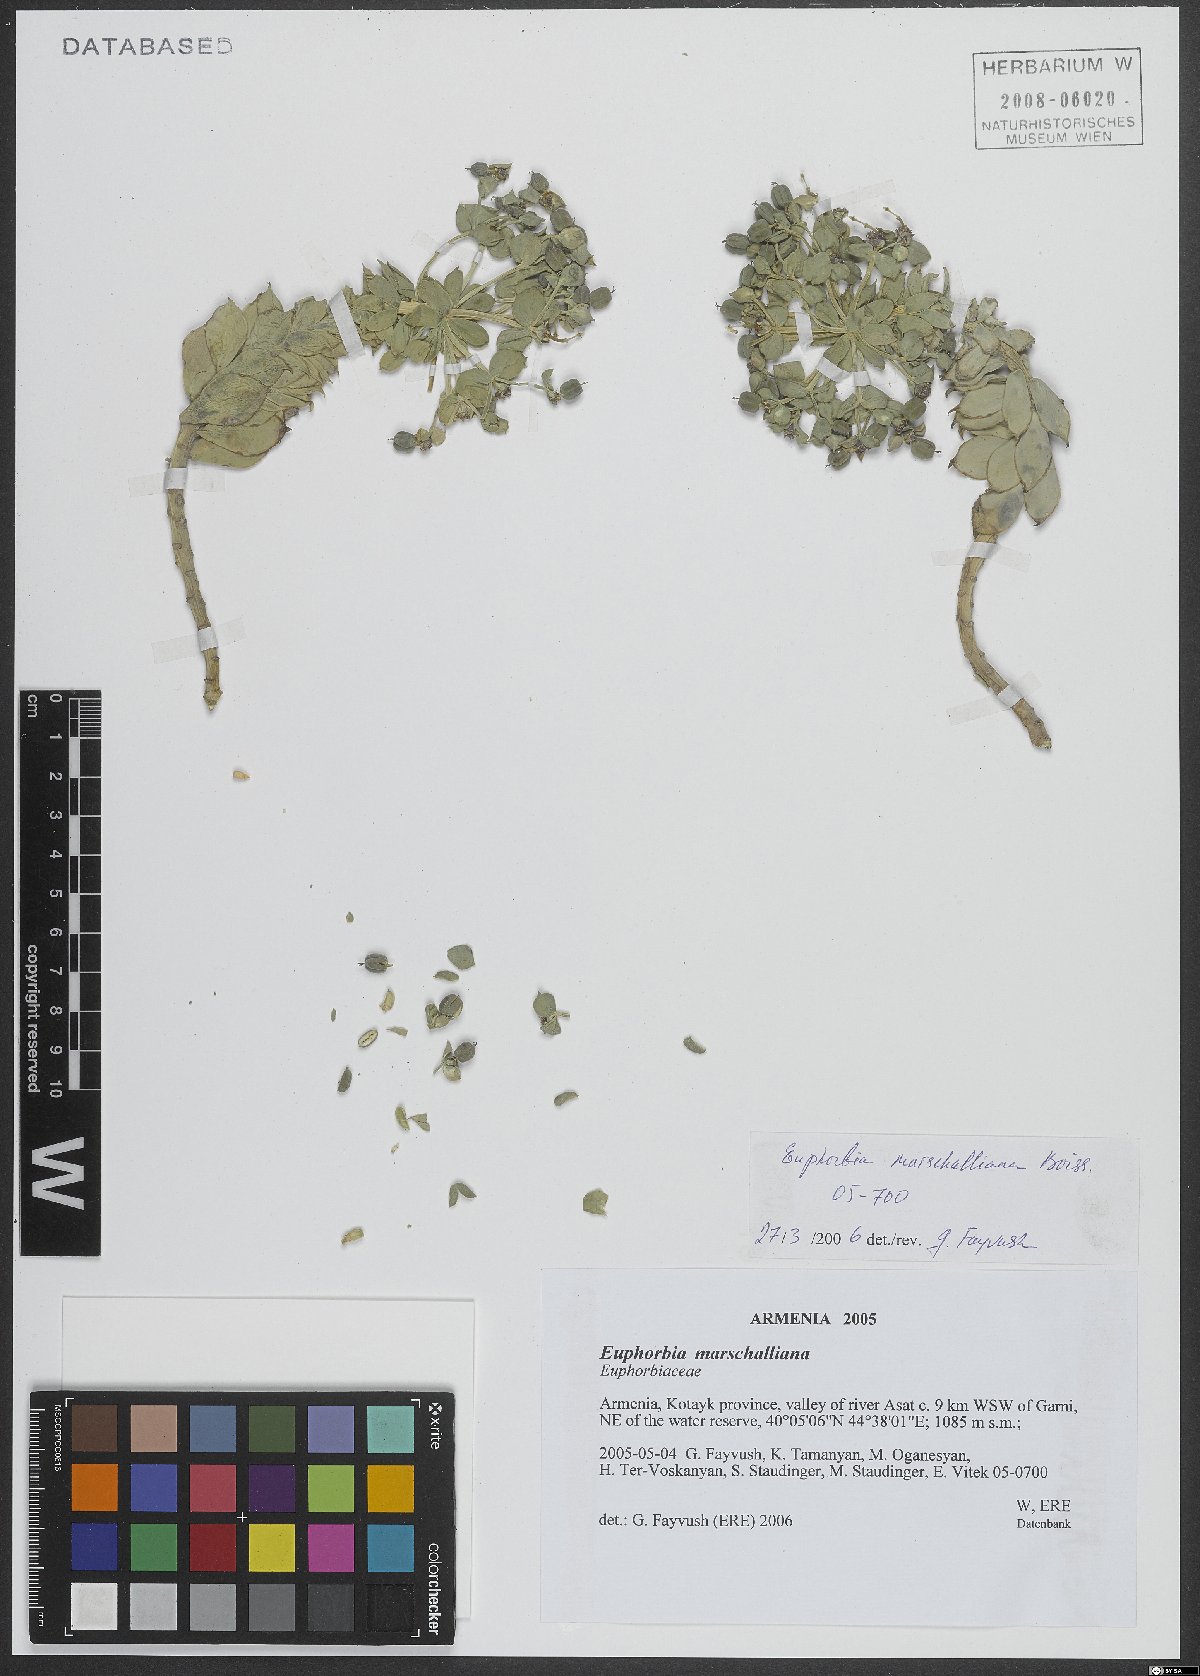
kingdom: Plantae
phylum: Tracheophyta
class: Magnoliopsida
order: Malpighiales
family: Euphorbiaceae
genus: Euphorbia
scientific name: Euphorbia marschalliana
